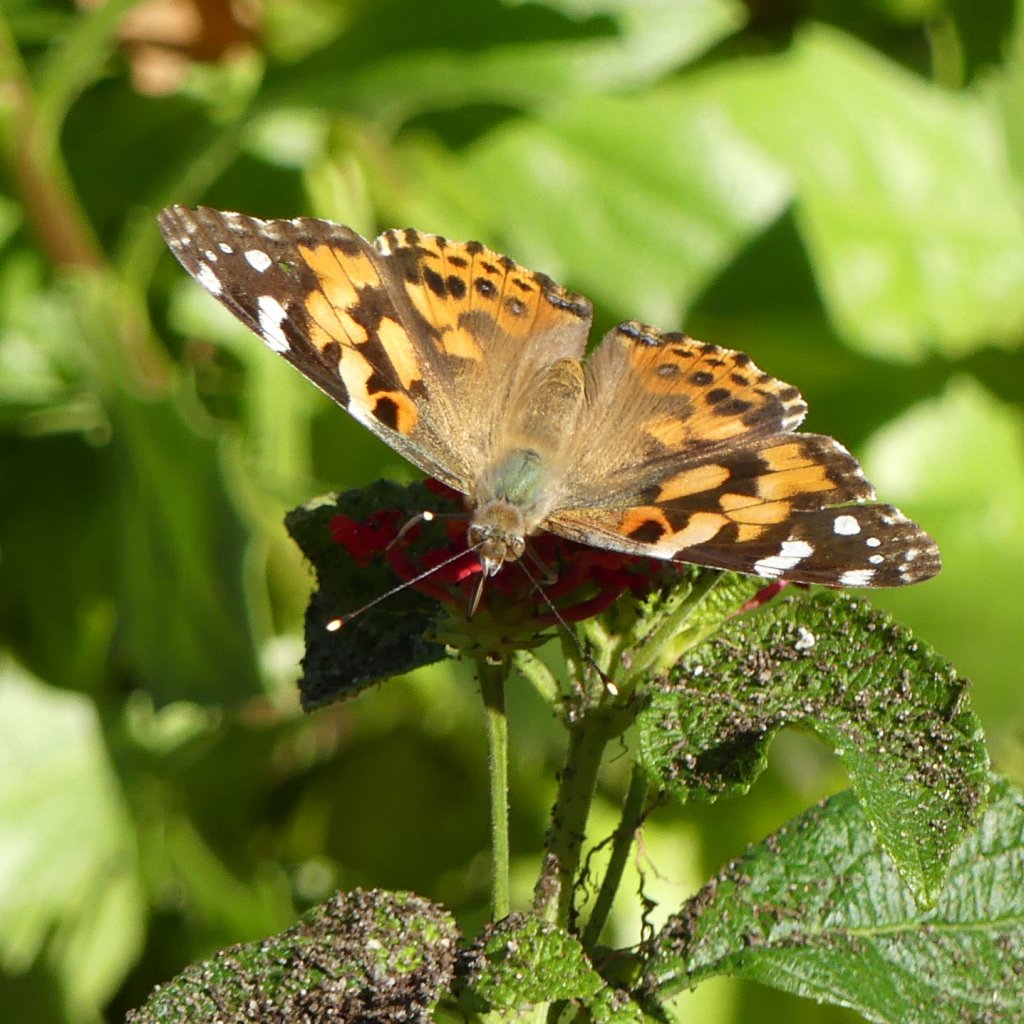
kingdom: Animalia
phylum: Arthropoda
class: Insecta
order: Lepidoptera
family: Nymphalidae
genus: Vanessa
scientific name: Vanessa cardui
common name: Painted Lady
